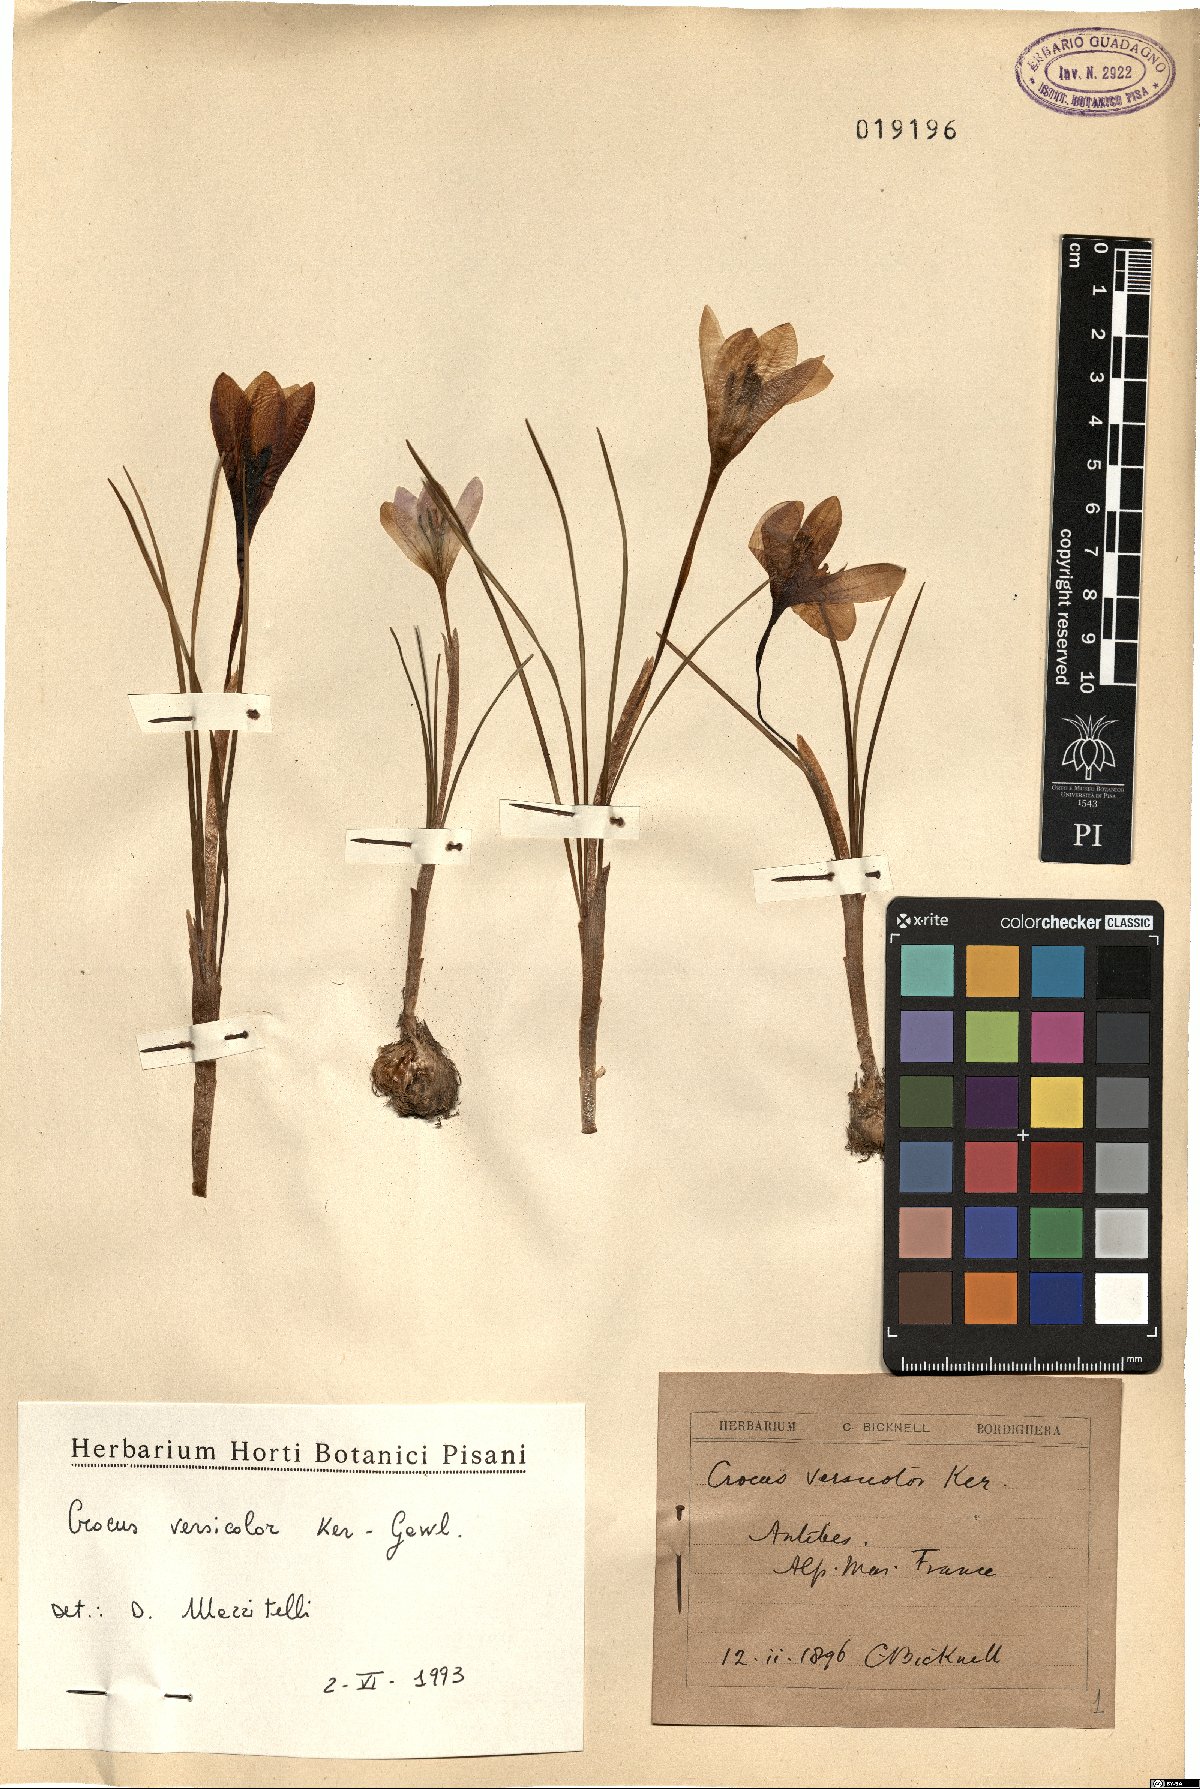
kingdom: Plantae
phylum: Tracheophyta
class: Liliopsida
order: Asparagales
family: Iridaceae
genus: Crocus
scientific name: Crocus versicolor
